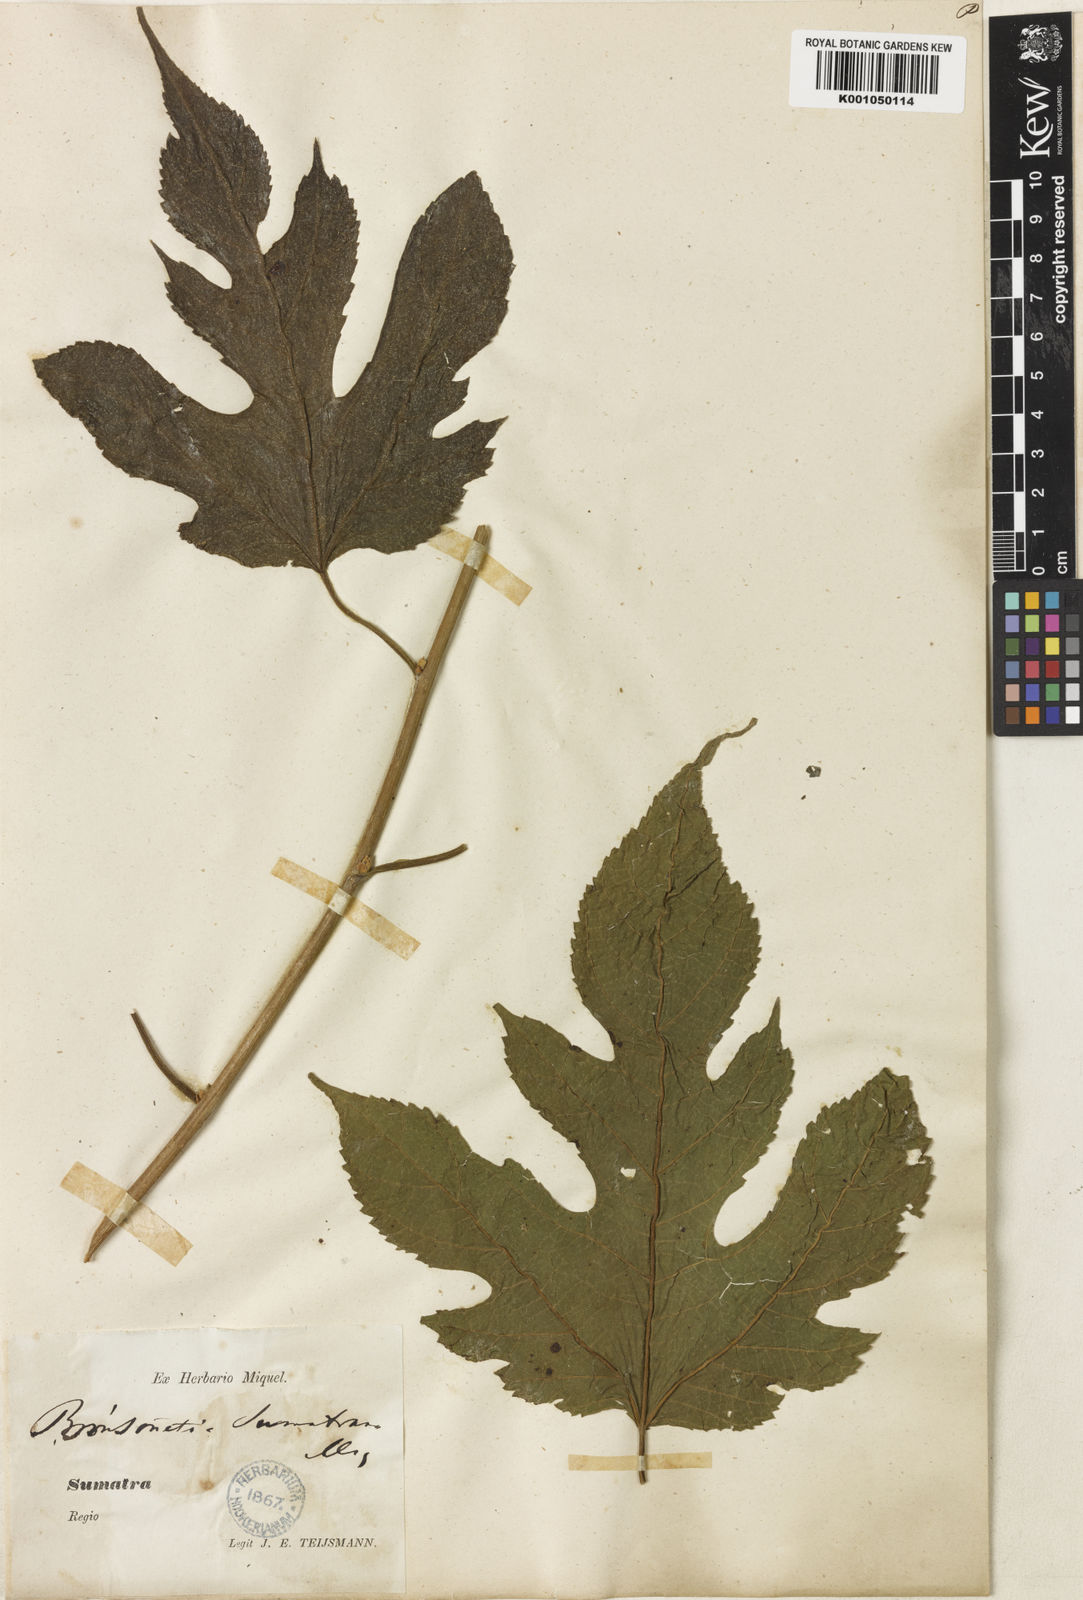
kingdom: Plantae
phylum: Tracheophyta
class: Magnoliopsida
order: Rosales
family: Moraceae
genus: Broussonetia
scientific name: Broussonetia papyrifera
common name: Paper mulberry
